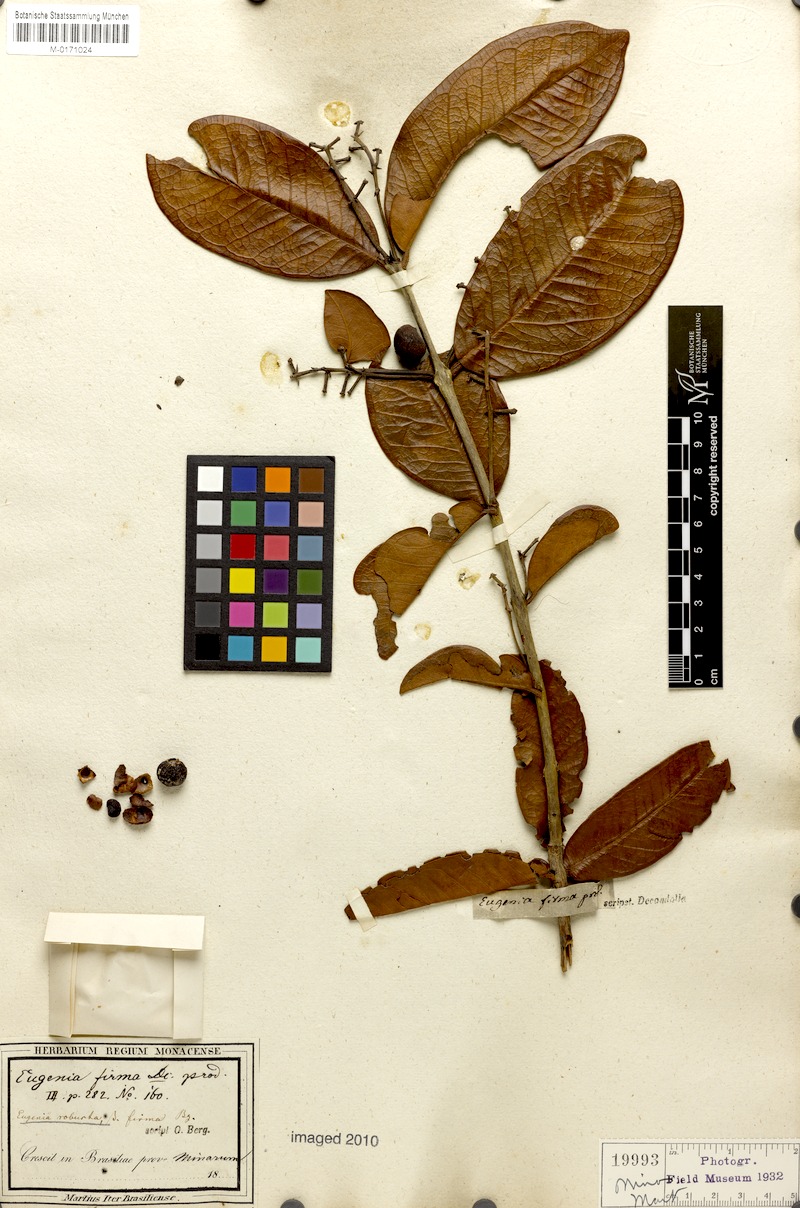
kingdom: Plantae
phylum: Tracheophyta
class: Magnoliopsida
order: Myrtales
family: Myrtaceae
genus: Eugenia
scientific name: Eugenia capparidifolia
